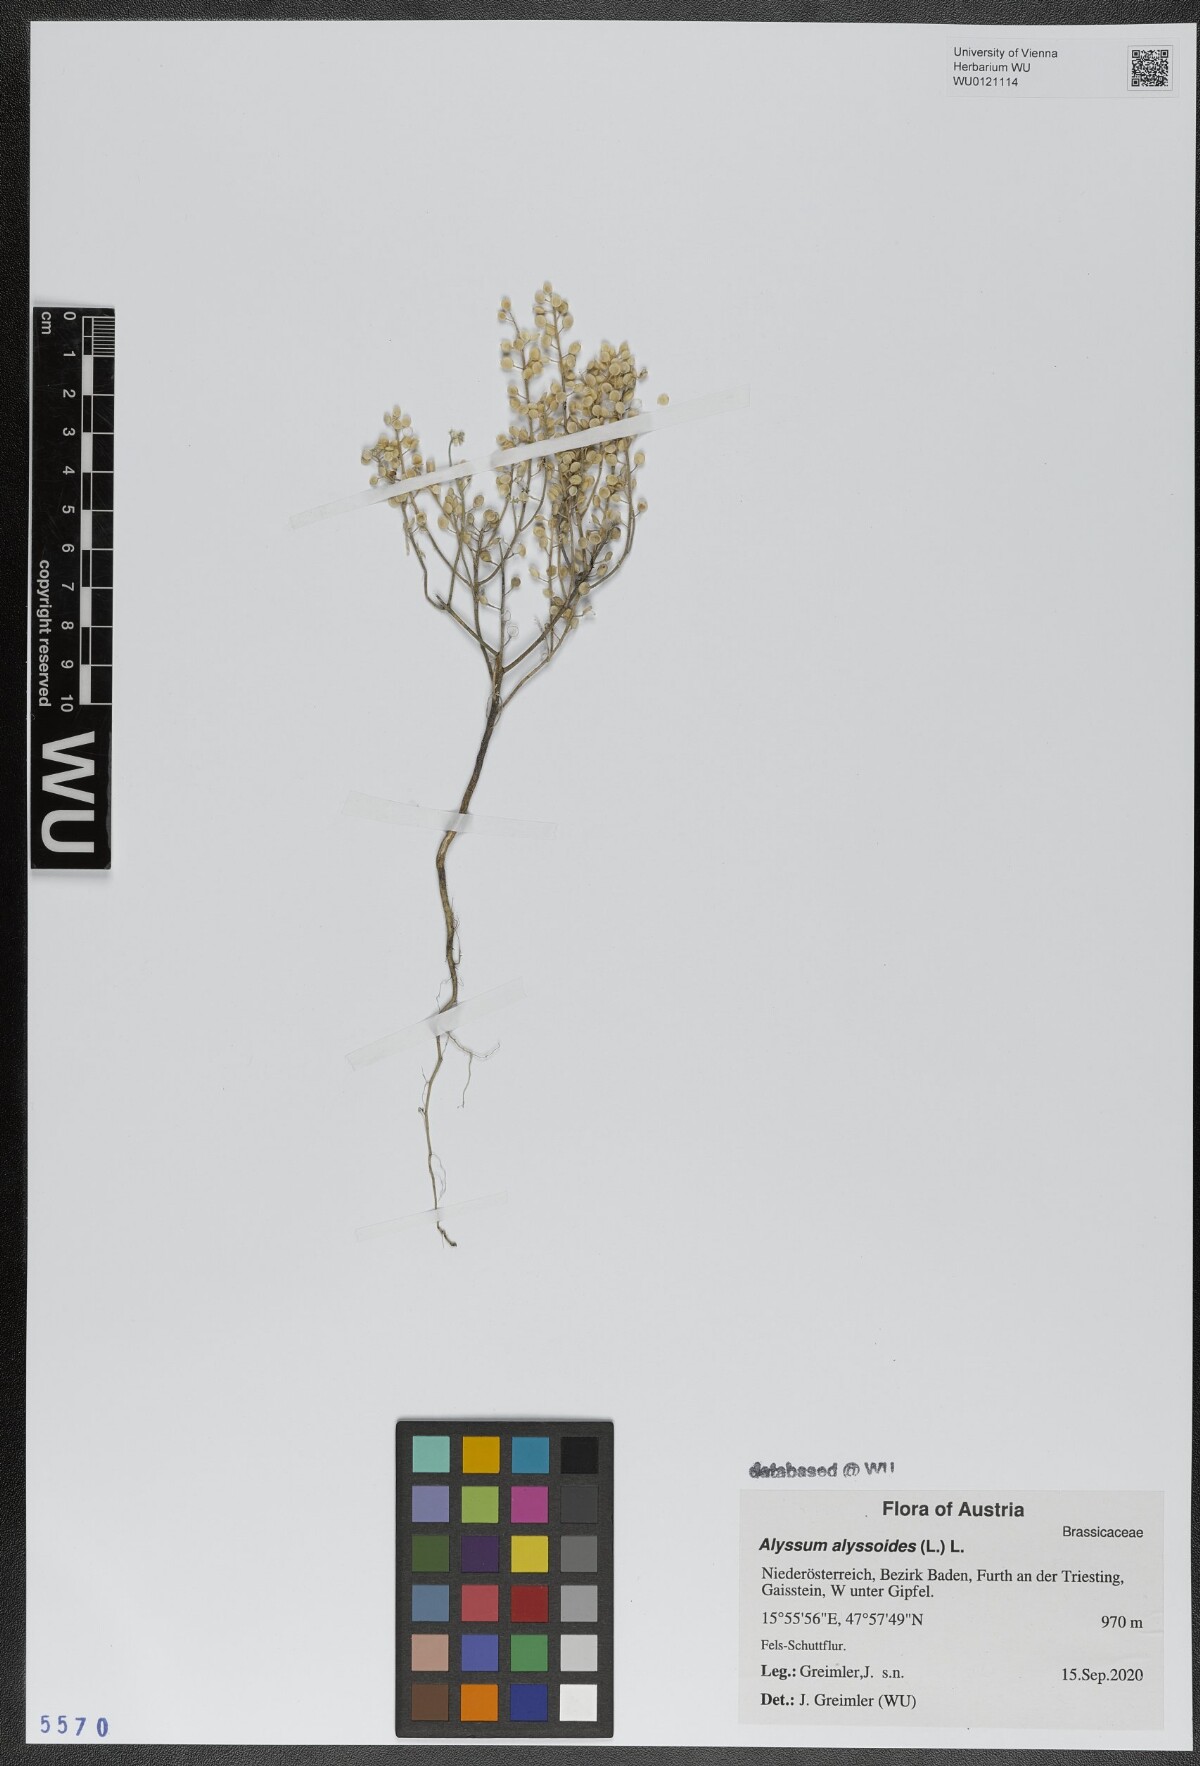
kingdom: Plantae
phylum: Tracheophyta
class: Magnoliopsida
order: Brassicales
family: Brassicaceae
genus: Alyssum
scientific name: Alyssum alyssoides
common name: Small alison
